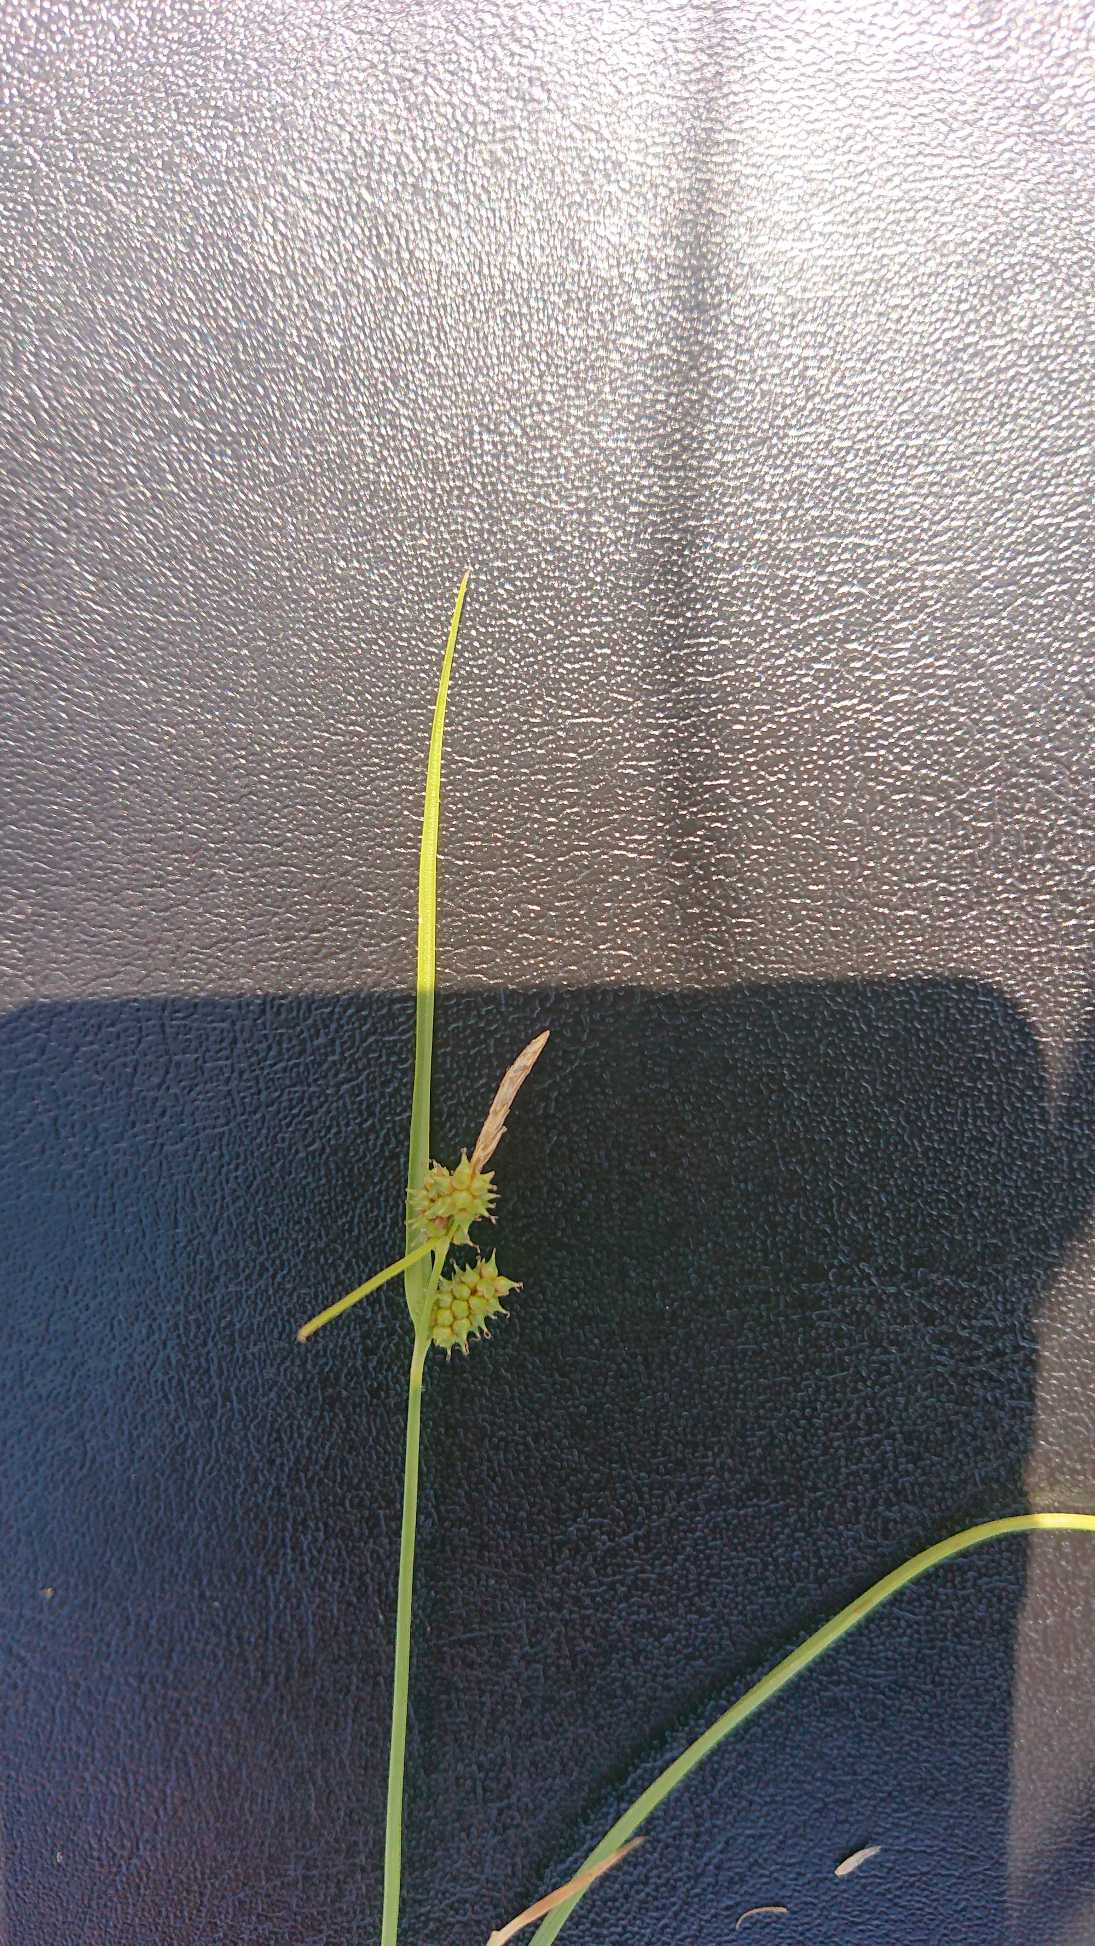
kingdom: Plantae
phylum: Tracheophyta
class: Liliopsida
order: Poales
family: Cyperaceae
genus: Carex
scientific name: Carex
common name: Starslægten
